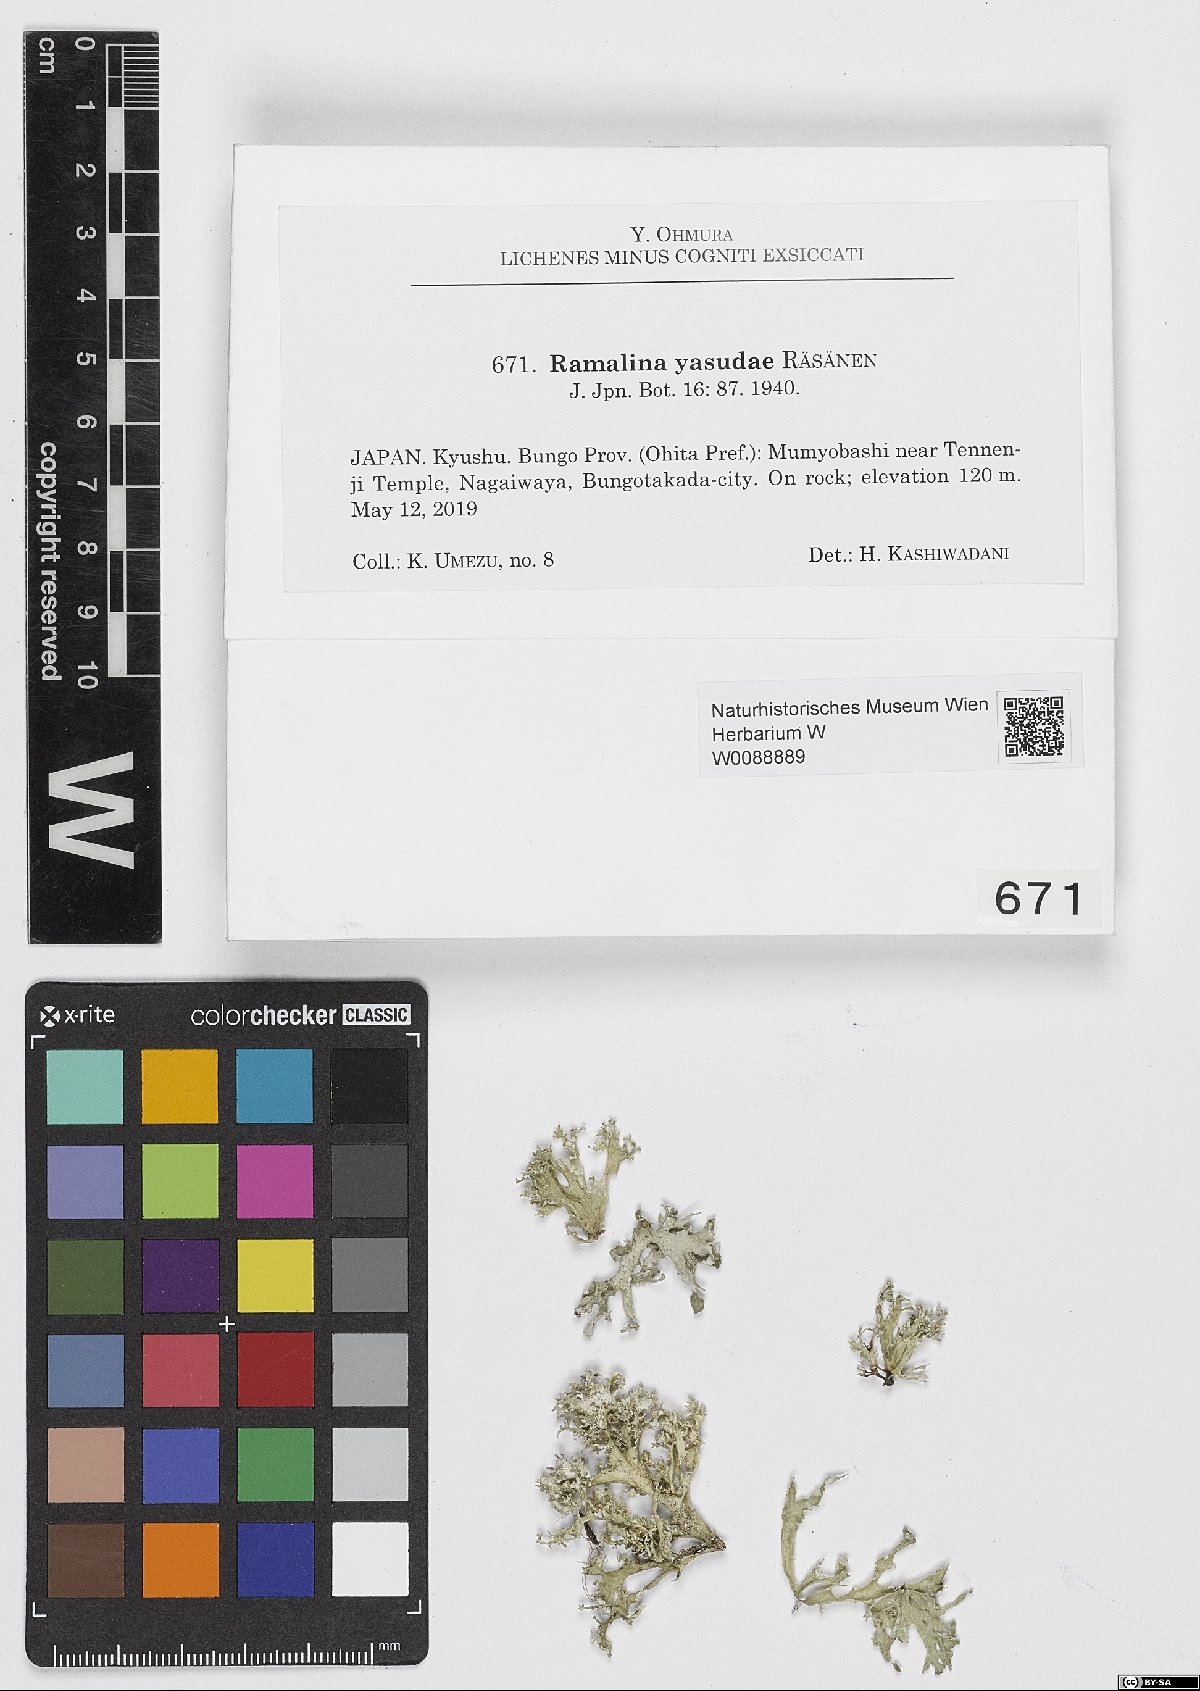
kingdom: Fungi
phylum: Ascomycota
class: Lecanoromycetes
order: Lecanorales
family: Ramalinaceae
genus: Ramalina
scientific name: Ramalina yasudae
